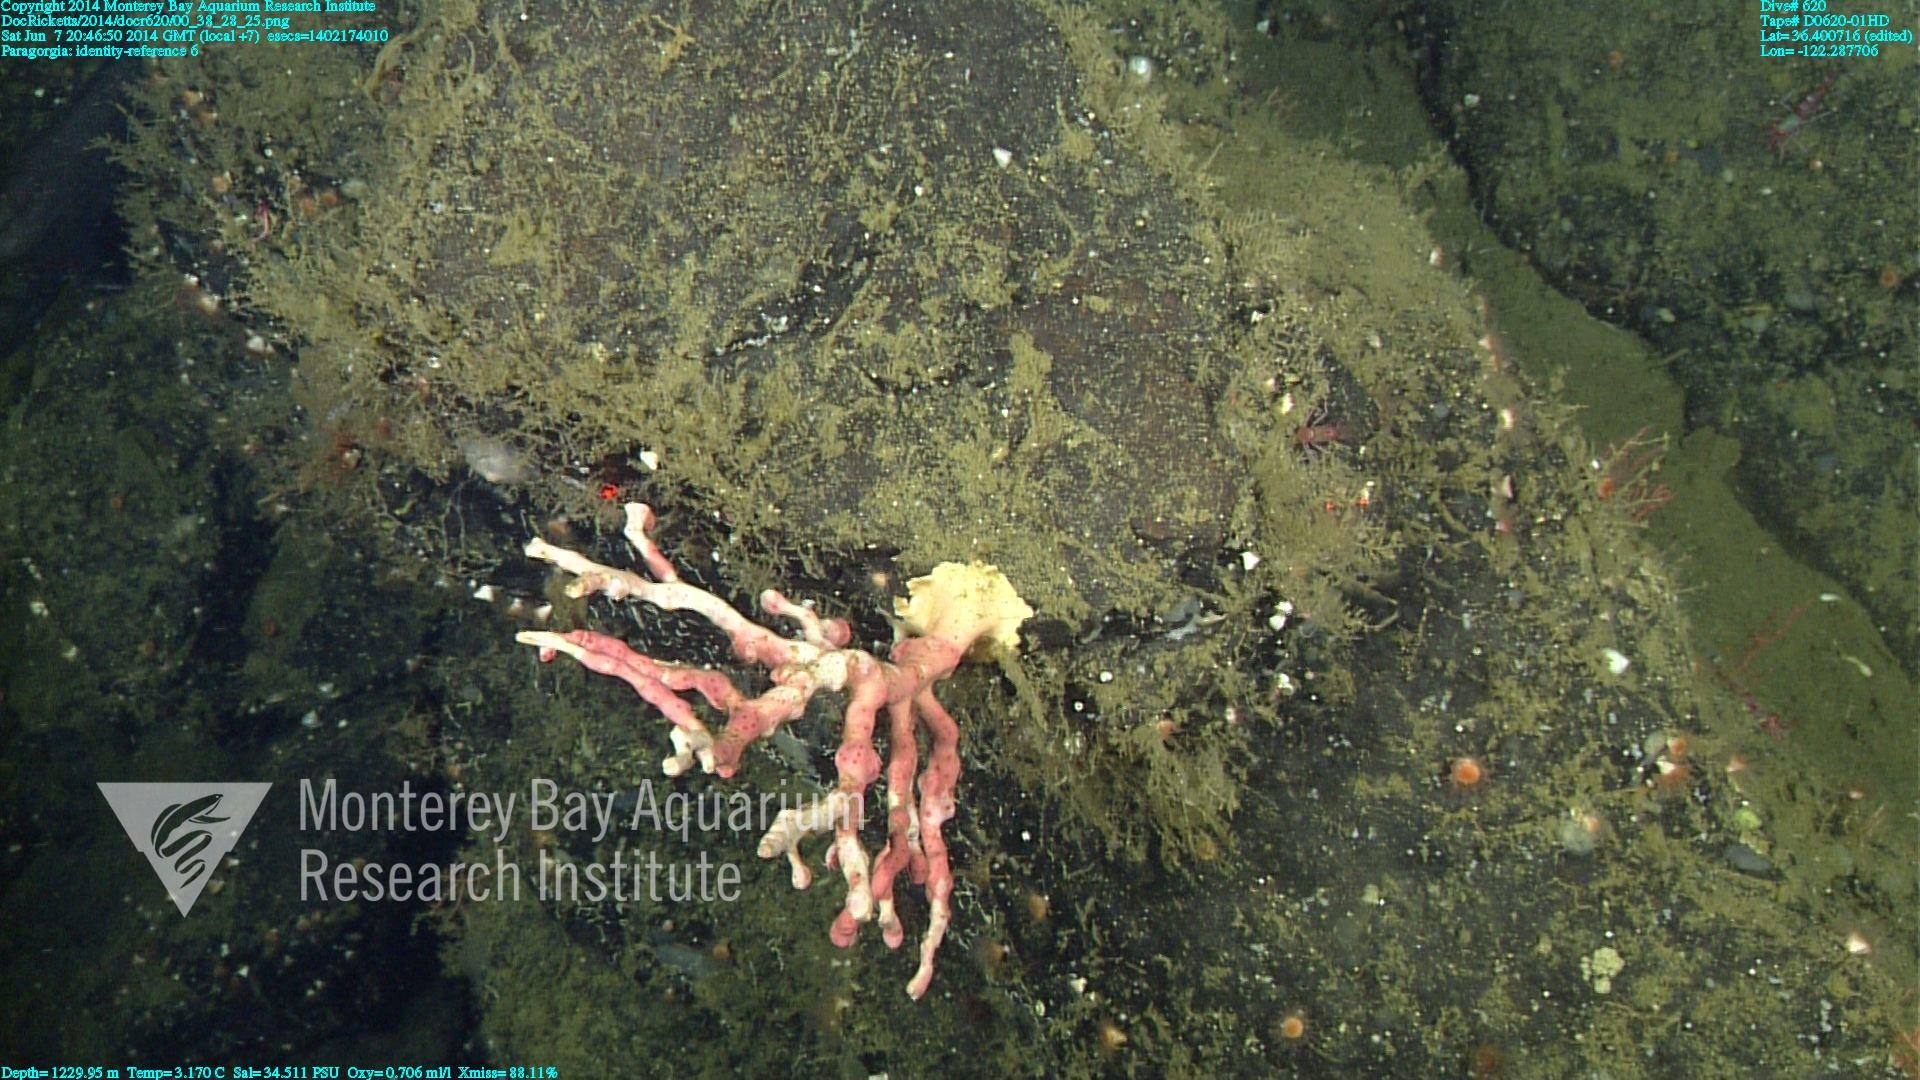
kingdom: Animalia
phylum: Cnidaria
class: Anthozoa
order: Scleralcyonacea
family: Coralliidae
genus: Paragorgia
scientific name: Paragorgia
